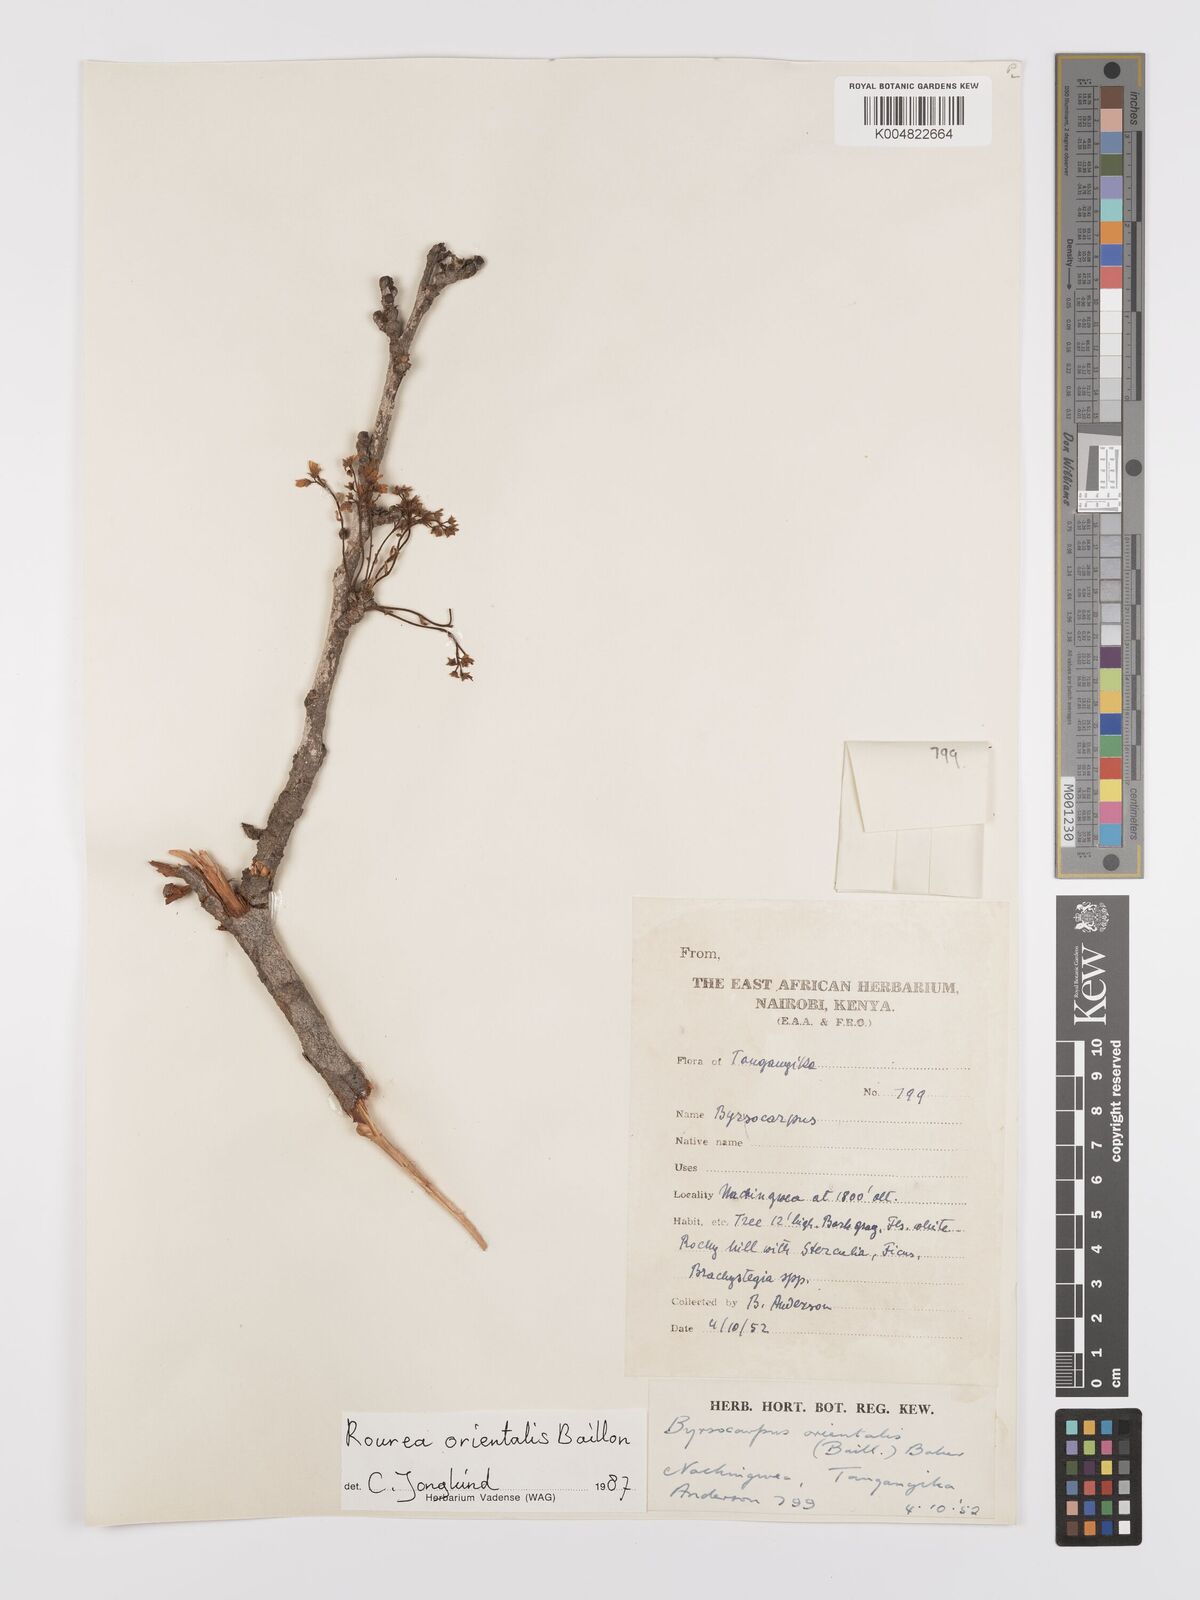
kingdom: Plantae
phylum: Tracheophyta
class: Magnoliopsida
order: Oxalidales
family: Connaraceae
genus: Rourea
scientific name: Rourea orientalis
